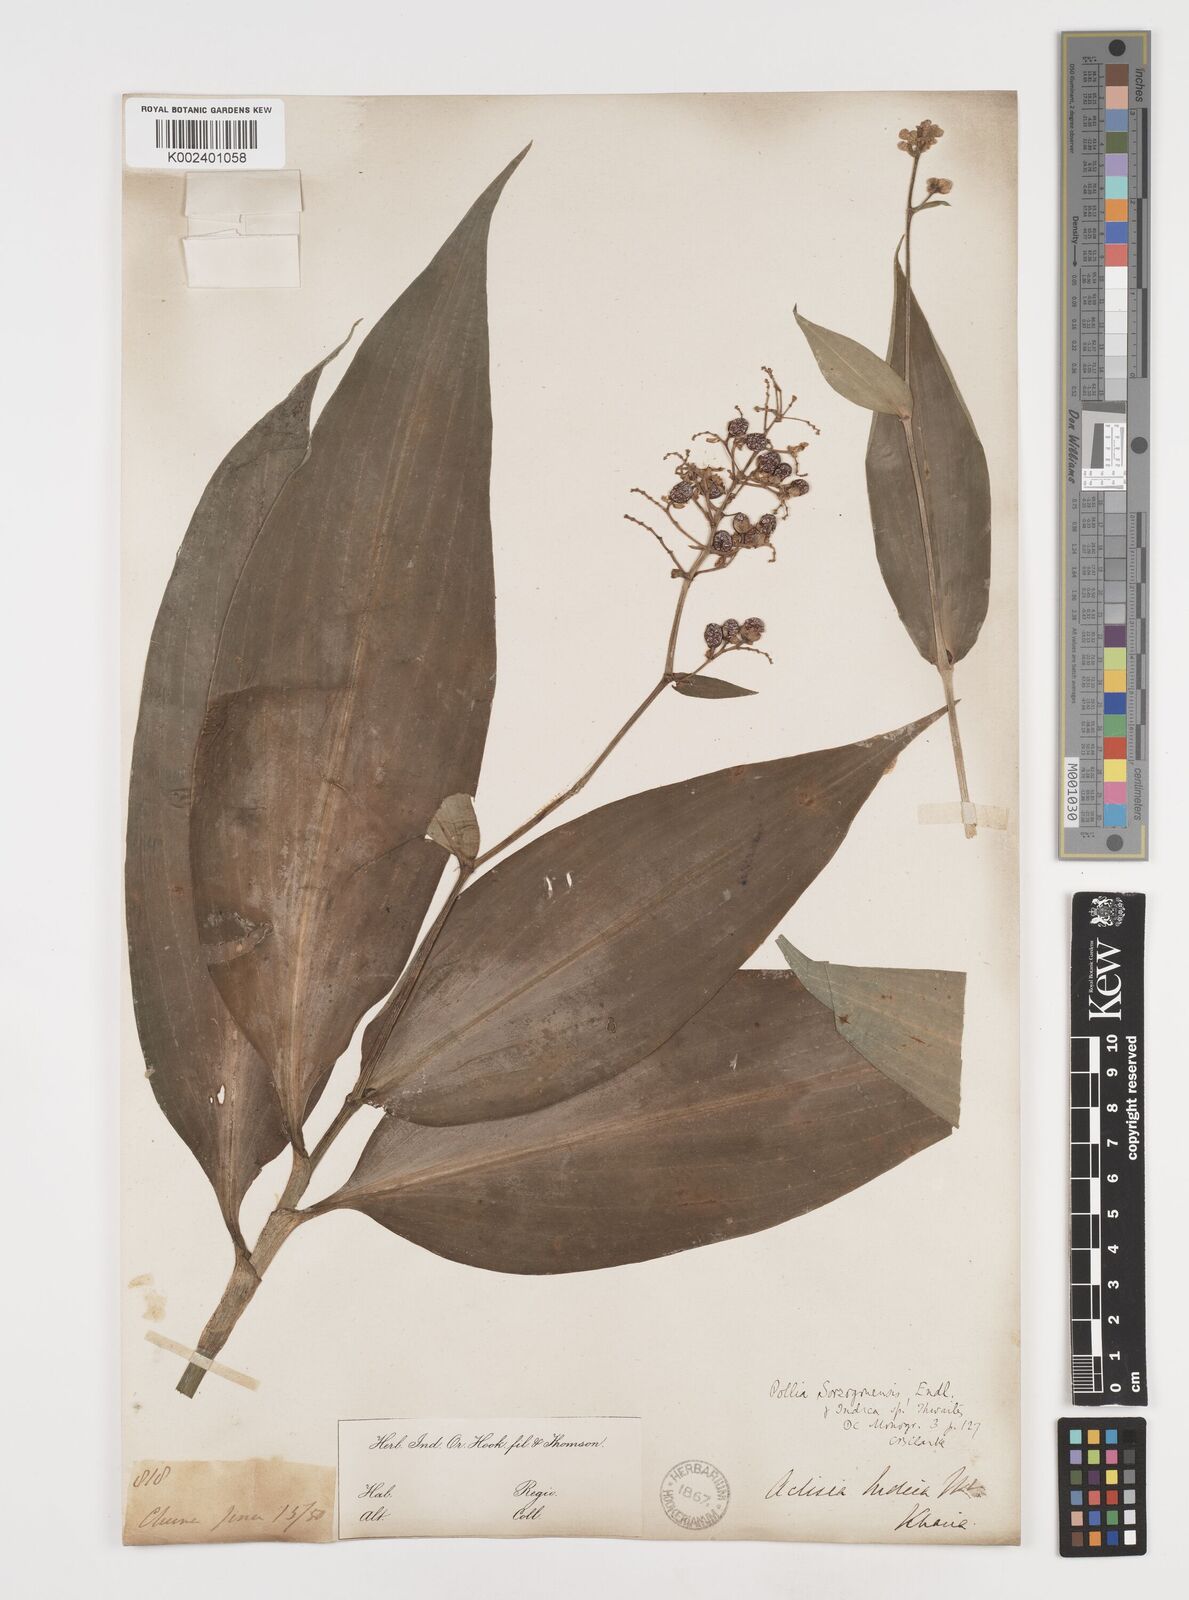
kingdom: Plantae
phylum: Tracheophyta
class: Liliopsida
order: Commelinales
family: Commelinaceae
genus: Pollia
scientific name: Pollia secundiflora
